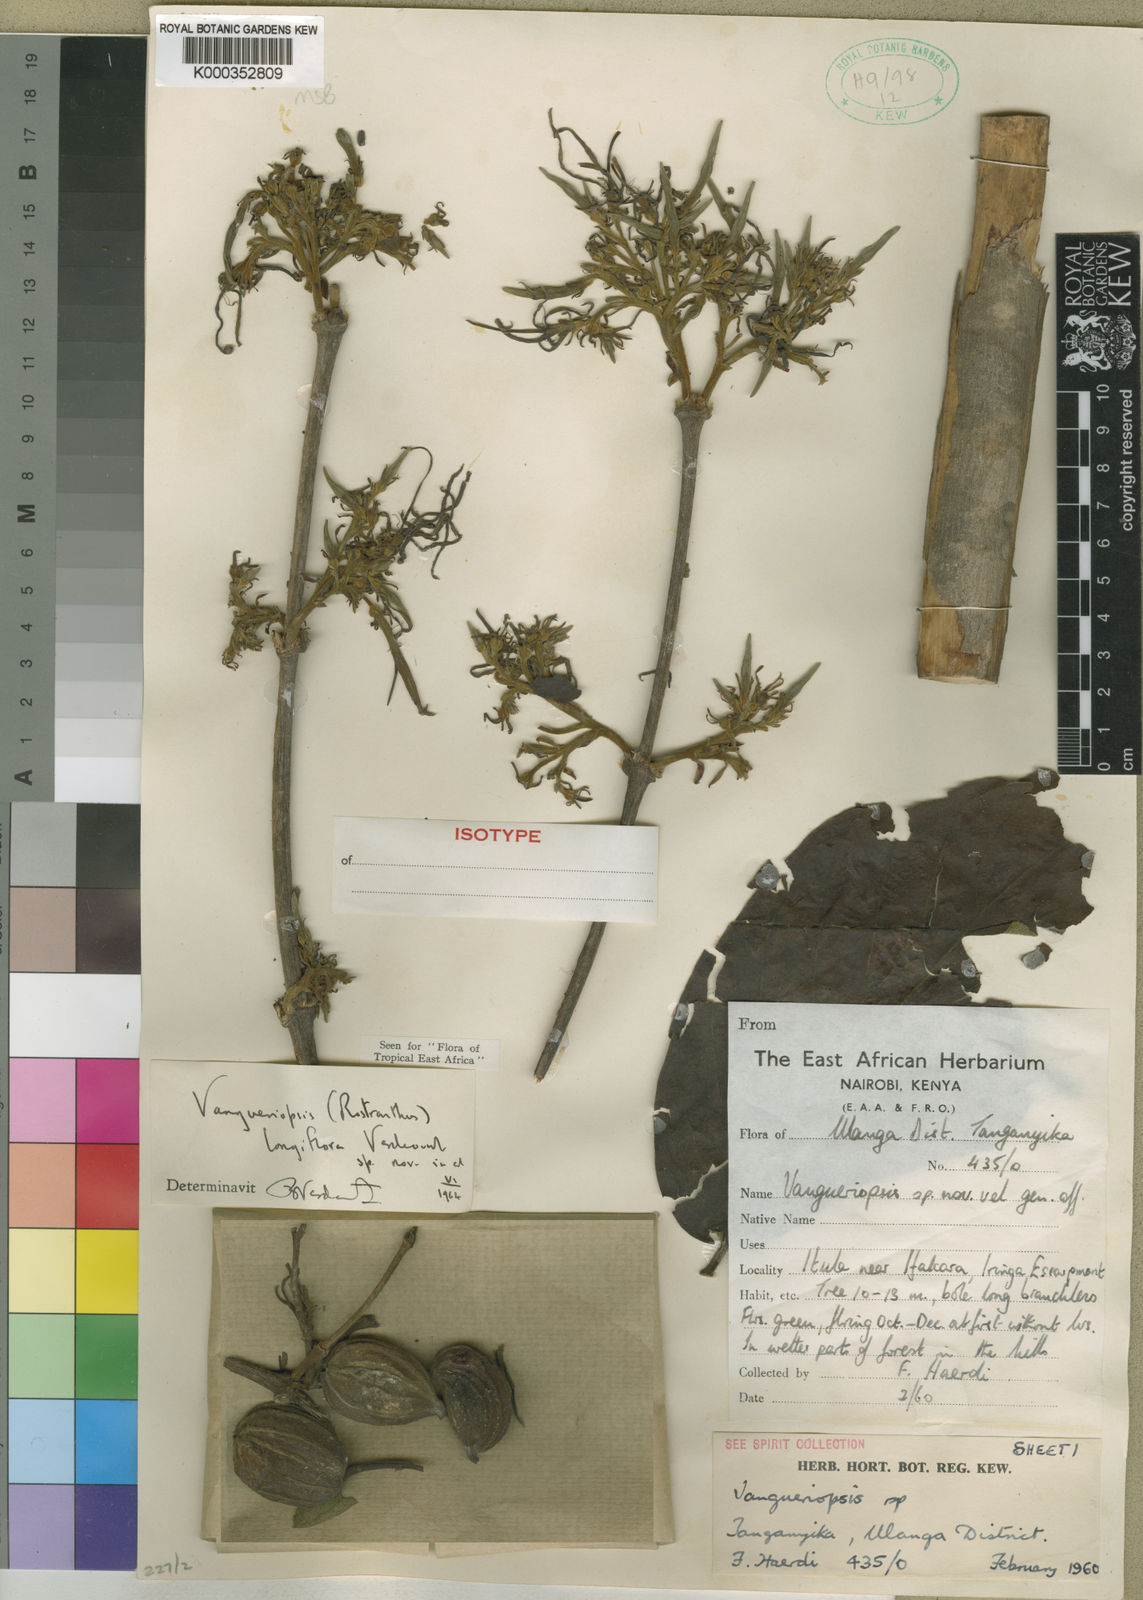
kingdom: Plantae
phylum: Tracheophyta
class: Magnoliopsida
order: Gentianales
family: Rubiaceae
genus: Vangueriopsis
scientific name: Vangueriopsis longiflora
